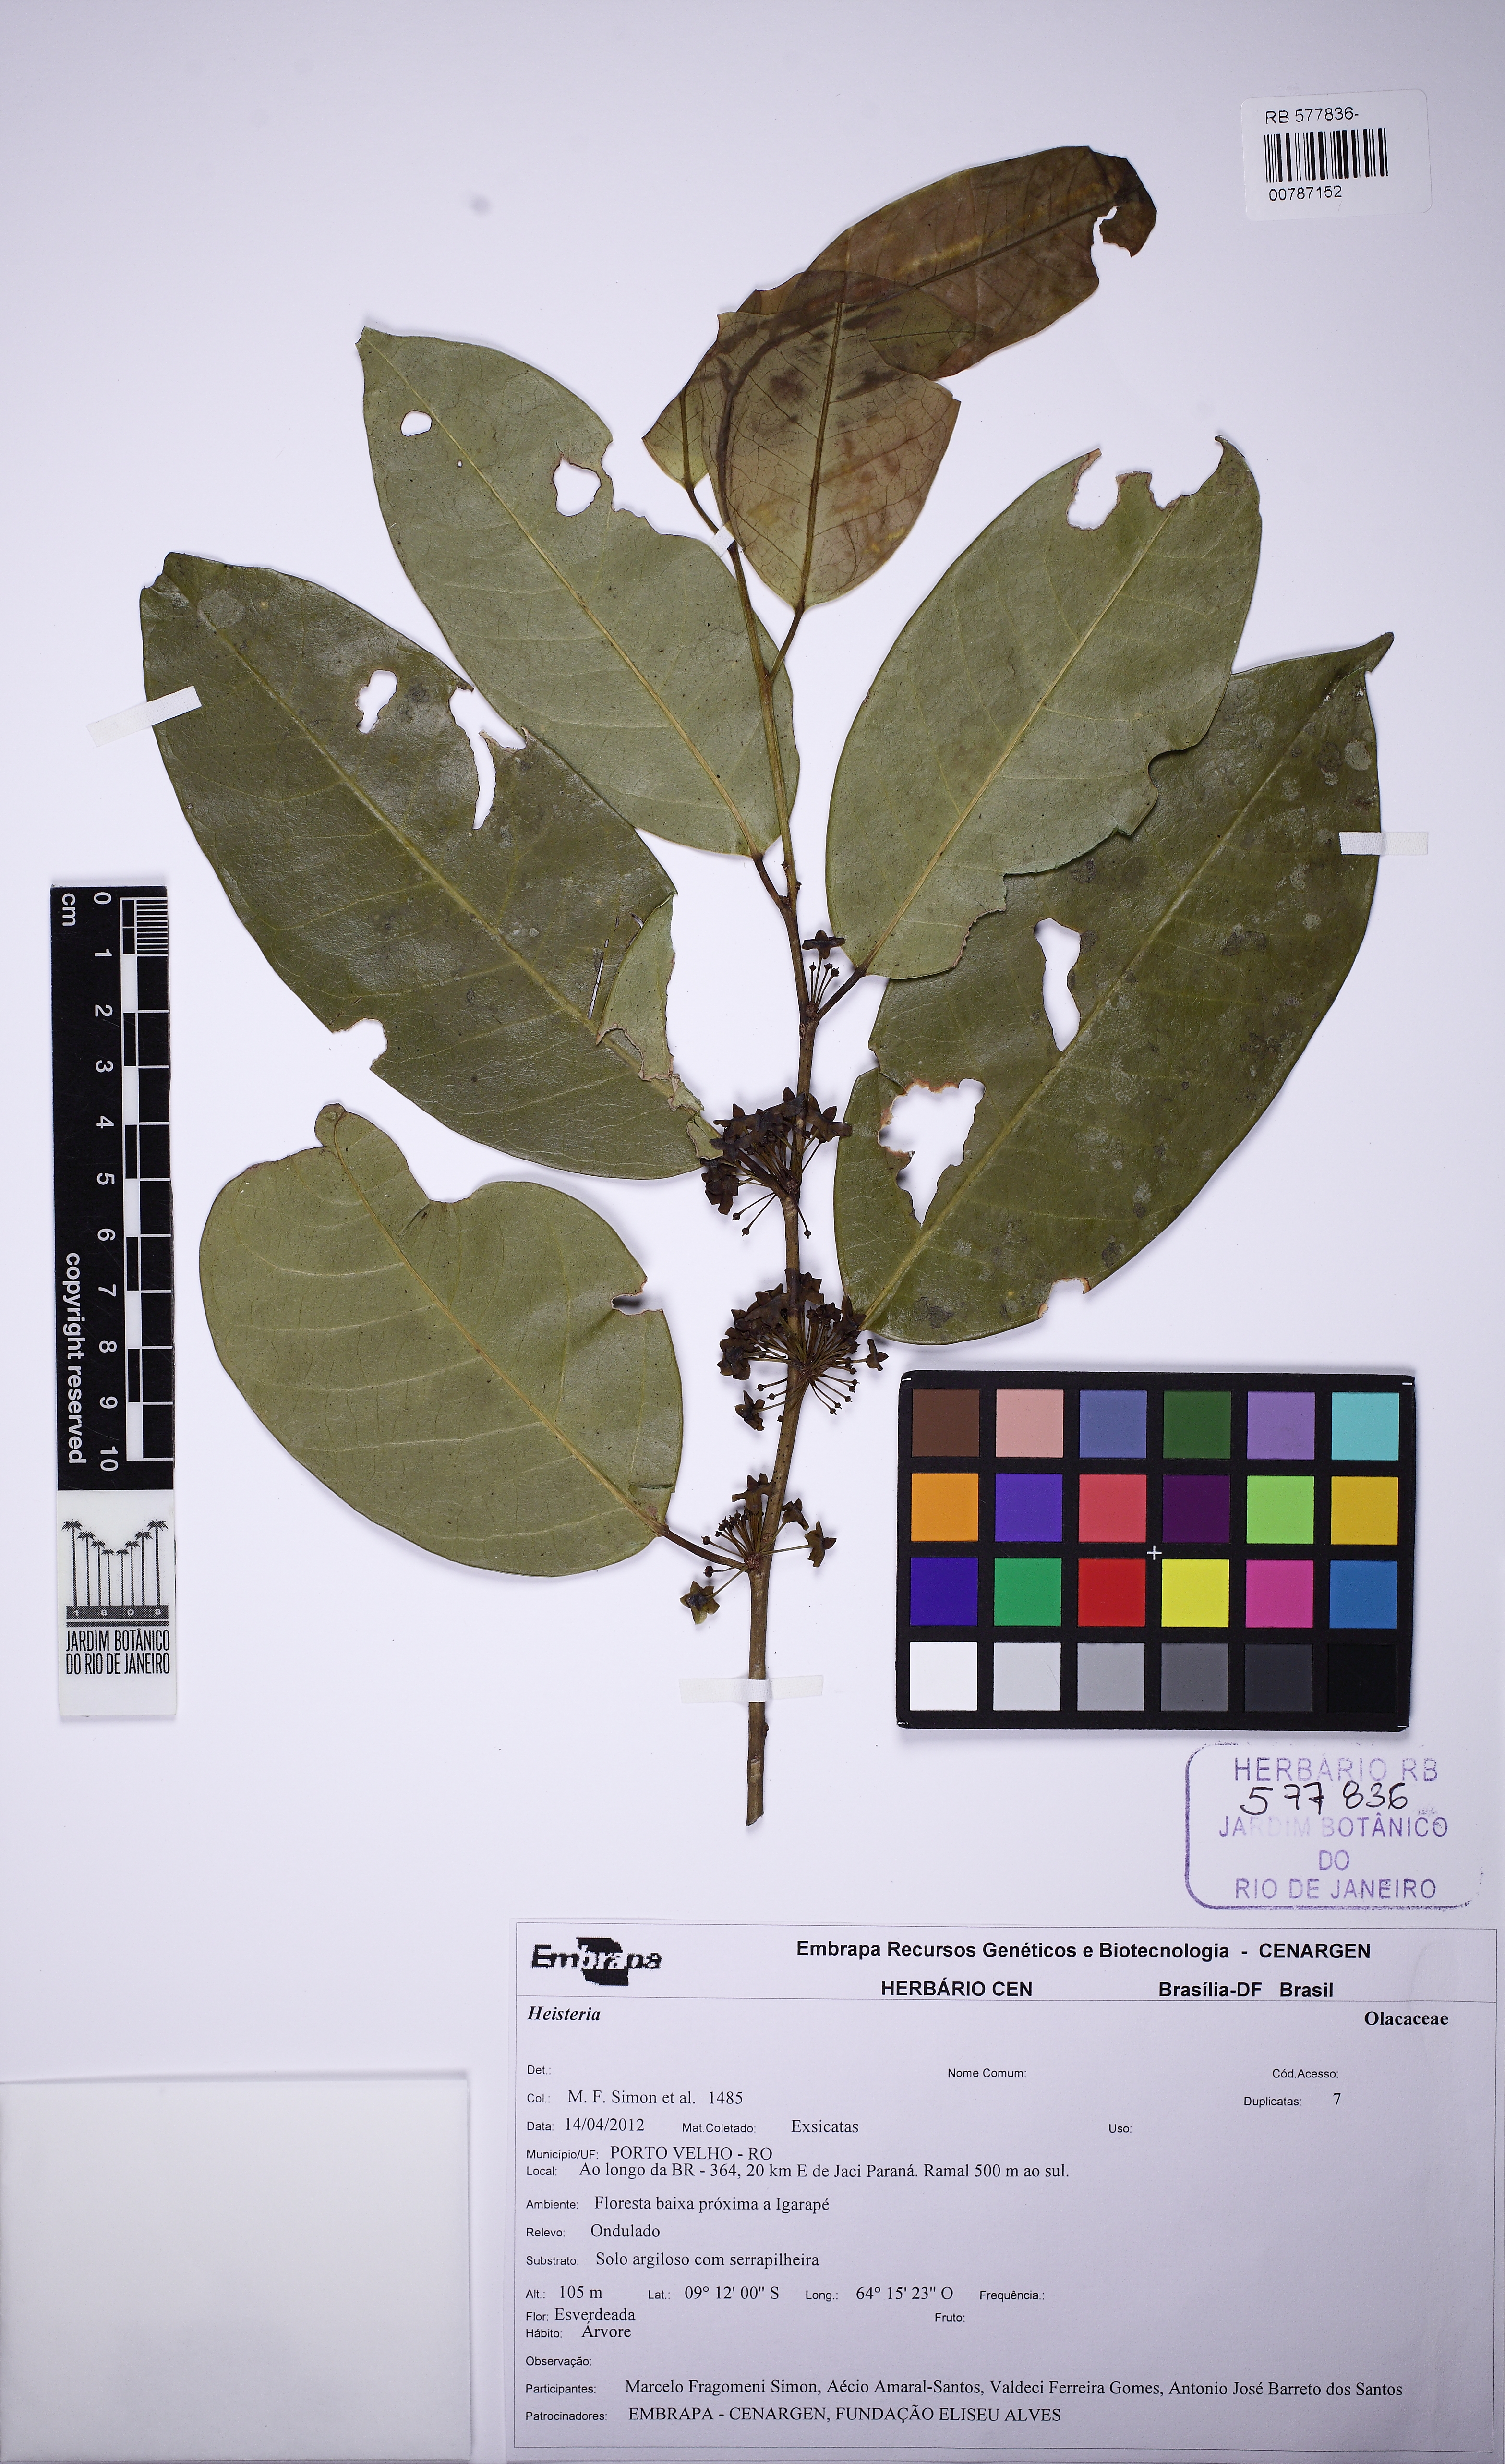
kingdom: Plantae
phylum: Tracheophyta
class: Magnoliopsida
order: Santalales
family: Erythropalaceae
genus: Heisteria
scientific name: Heisteria
